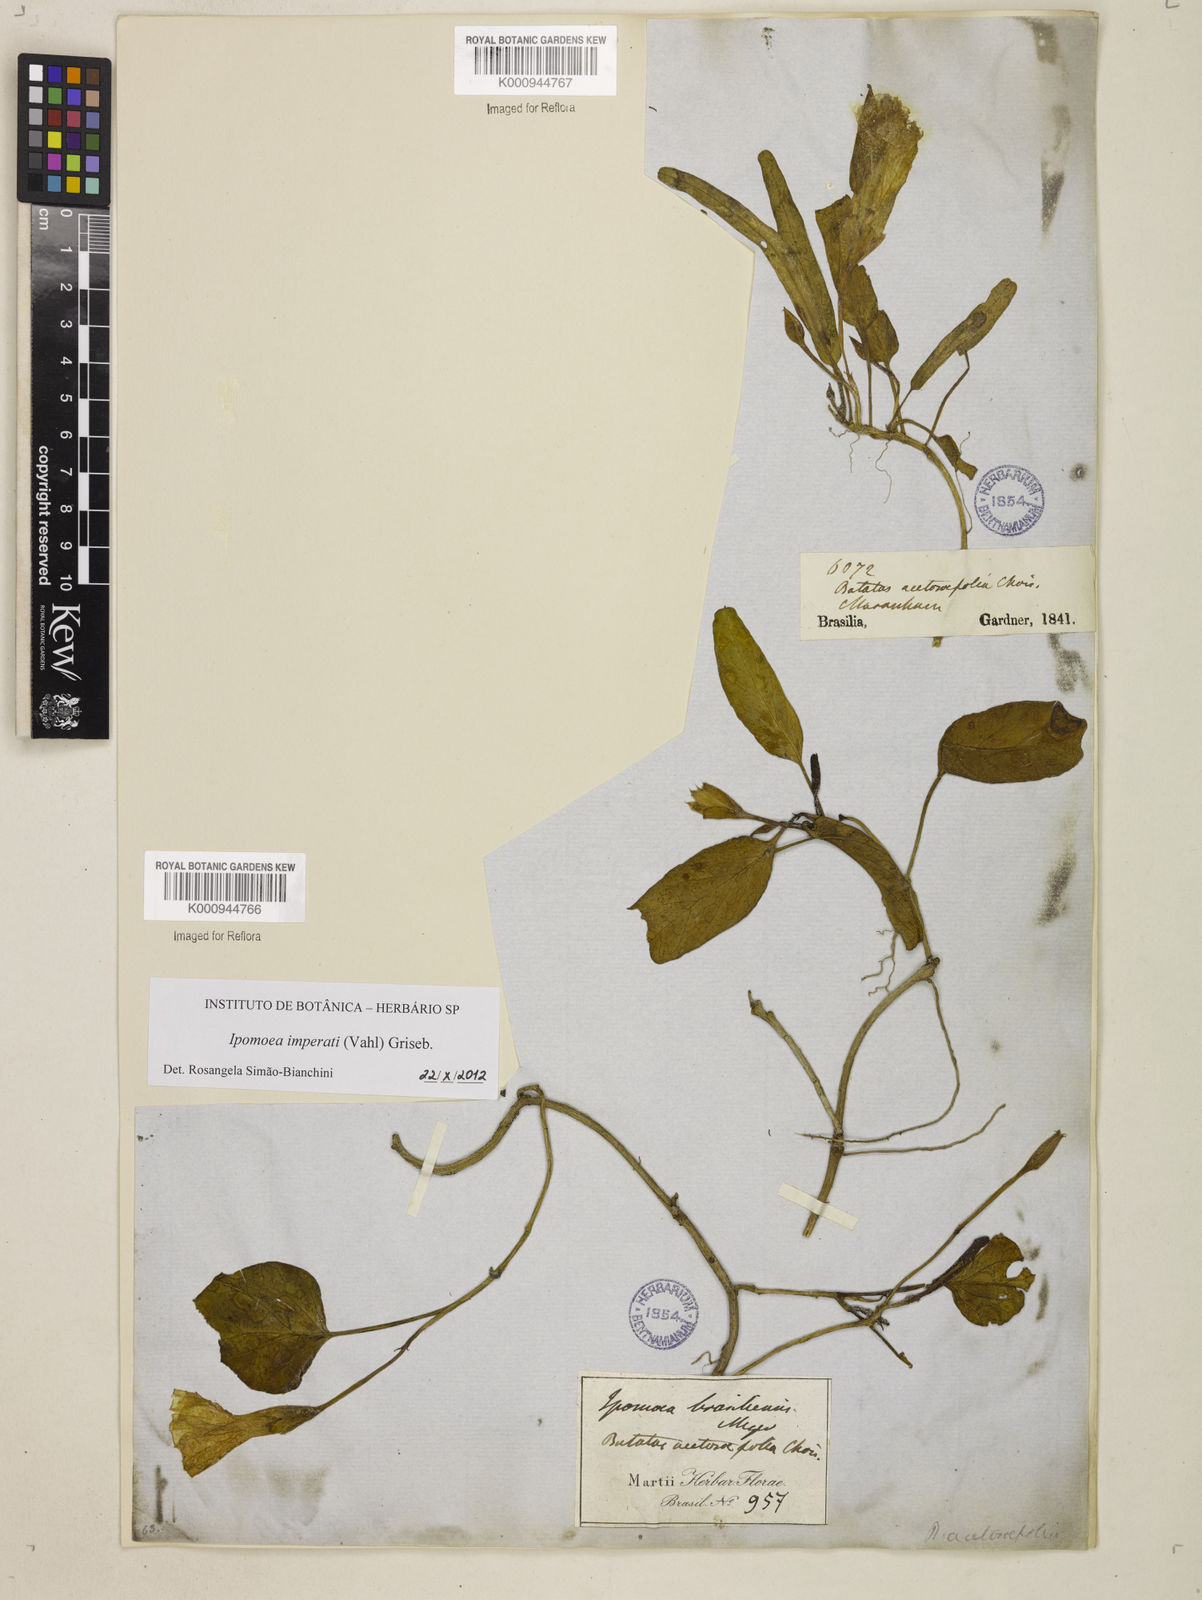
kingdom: Plantae
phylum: Tracheophyta
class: Magnoliopsida
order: Solanales
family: Convolvulaceae
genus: Ipomoea
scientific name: Ipomoea
